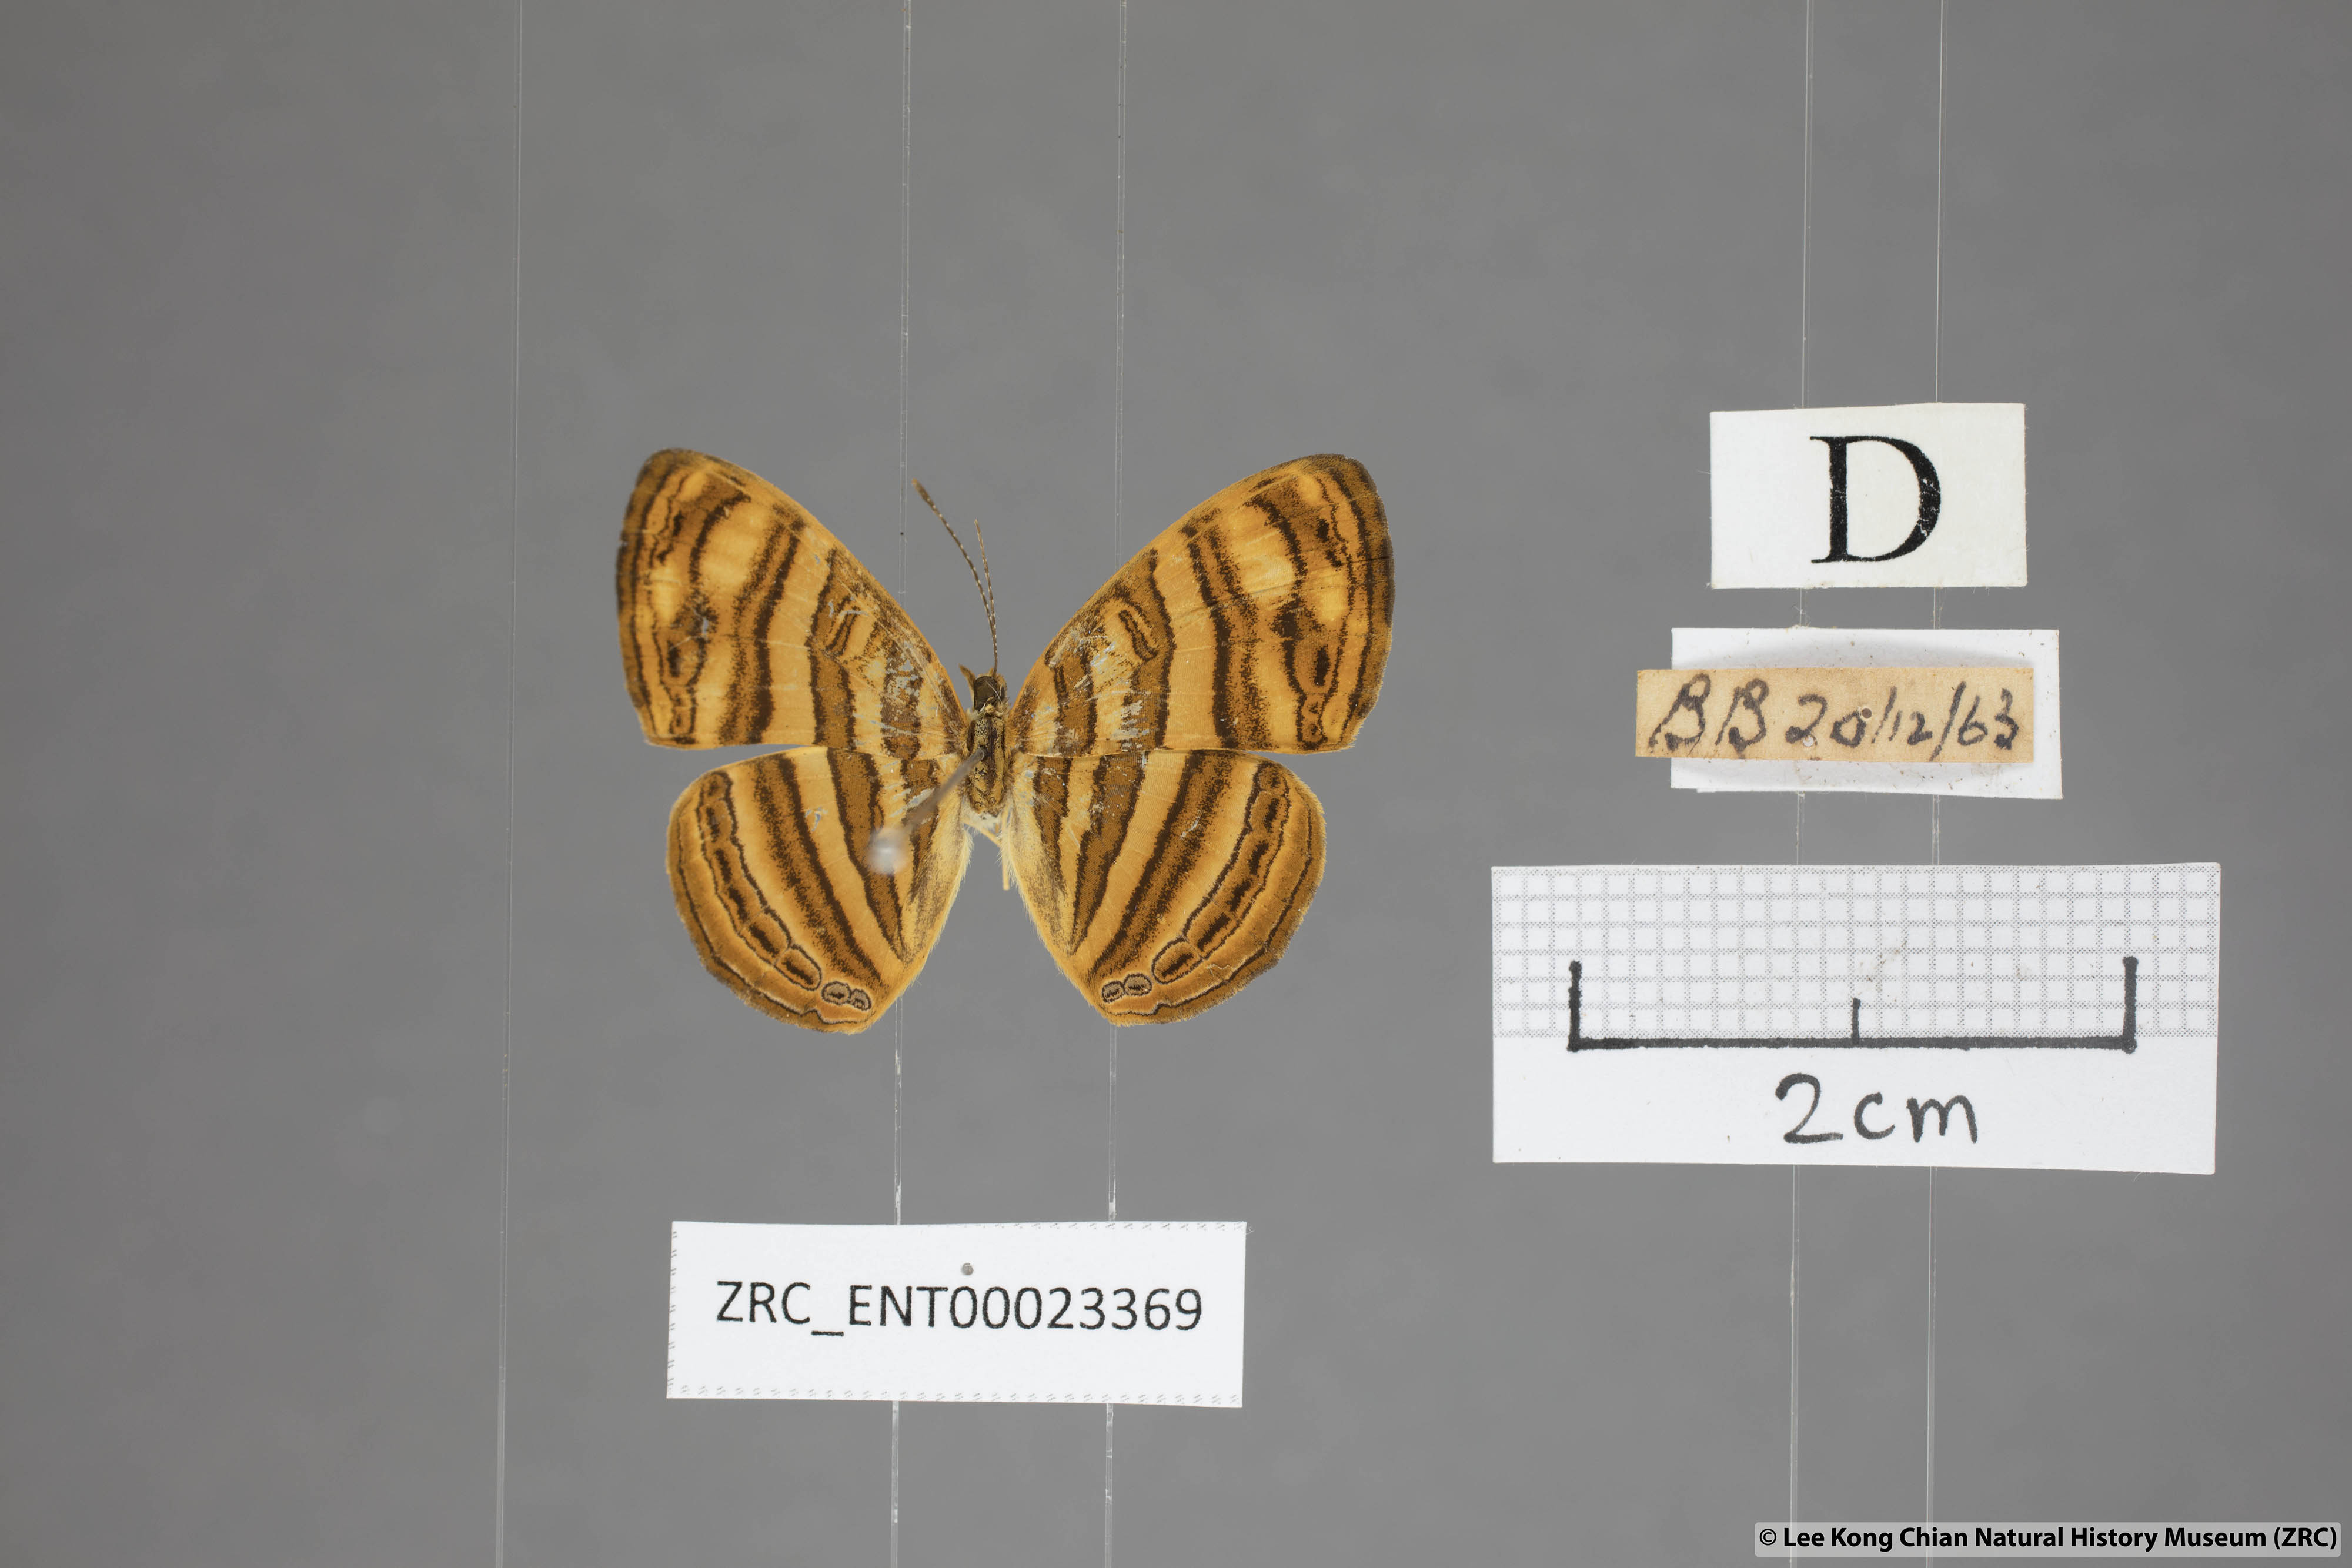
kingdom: Animalia
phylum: Arthropoda
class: Insecta
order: Lepidoptera
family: Nymphalidae
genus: Chersonesia
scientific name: Chersonesia peraka
